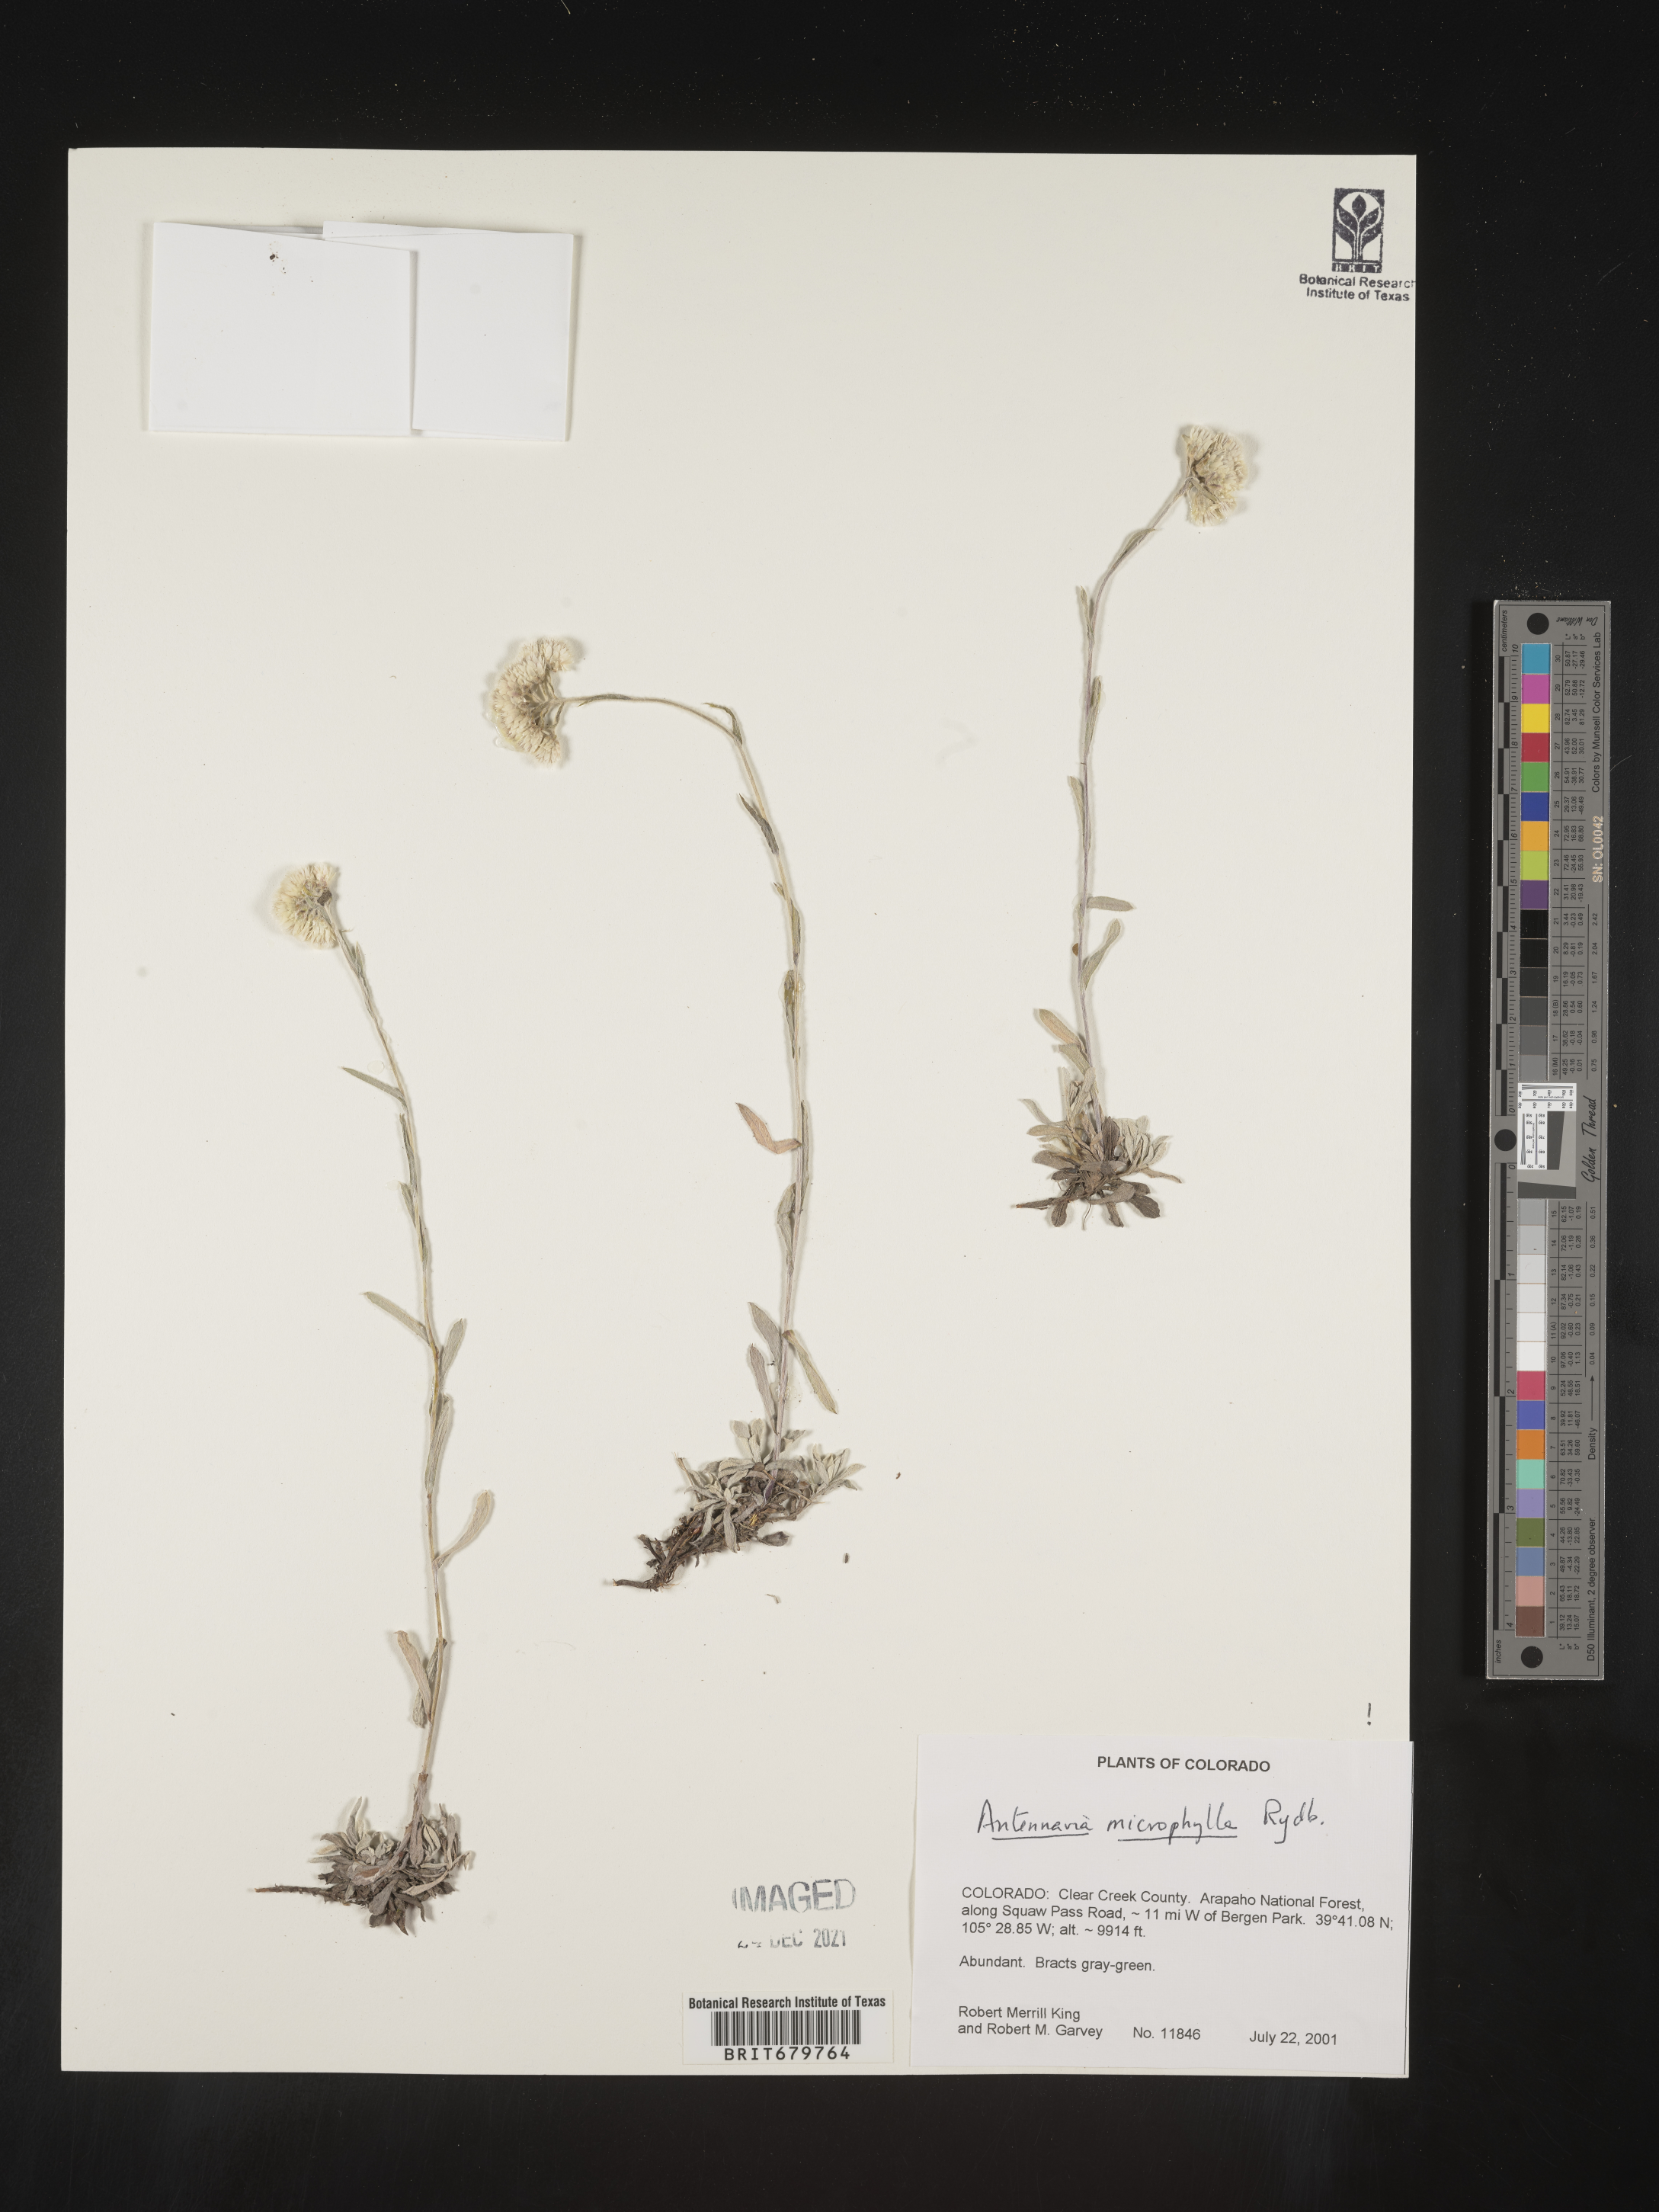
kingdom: Plantae
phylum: Tracheophyta
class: Magnoliopsida
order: Asterales
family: Asteraceae
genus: Antennaria
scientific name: Antennaria microphylla
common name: Littleleaf pussytoes
